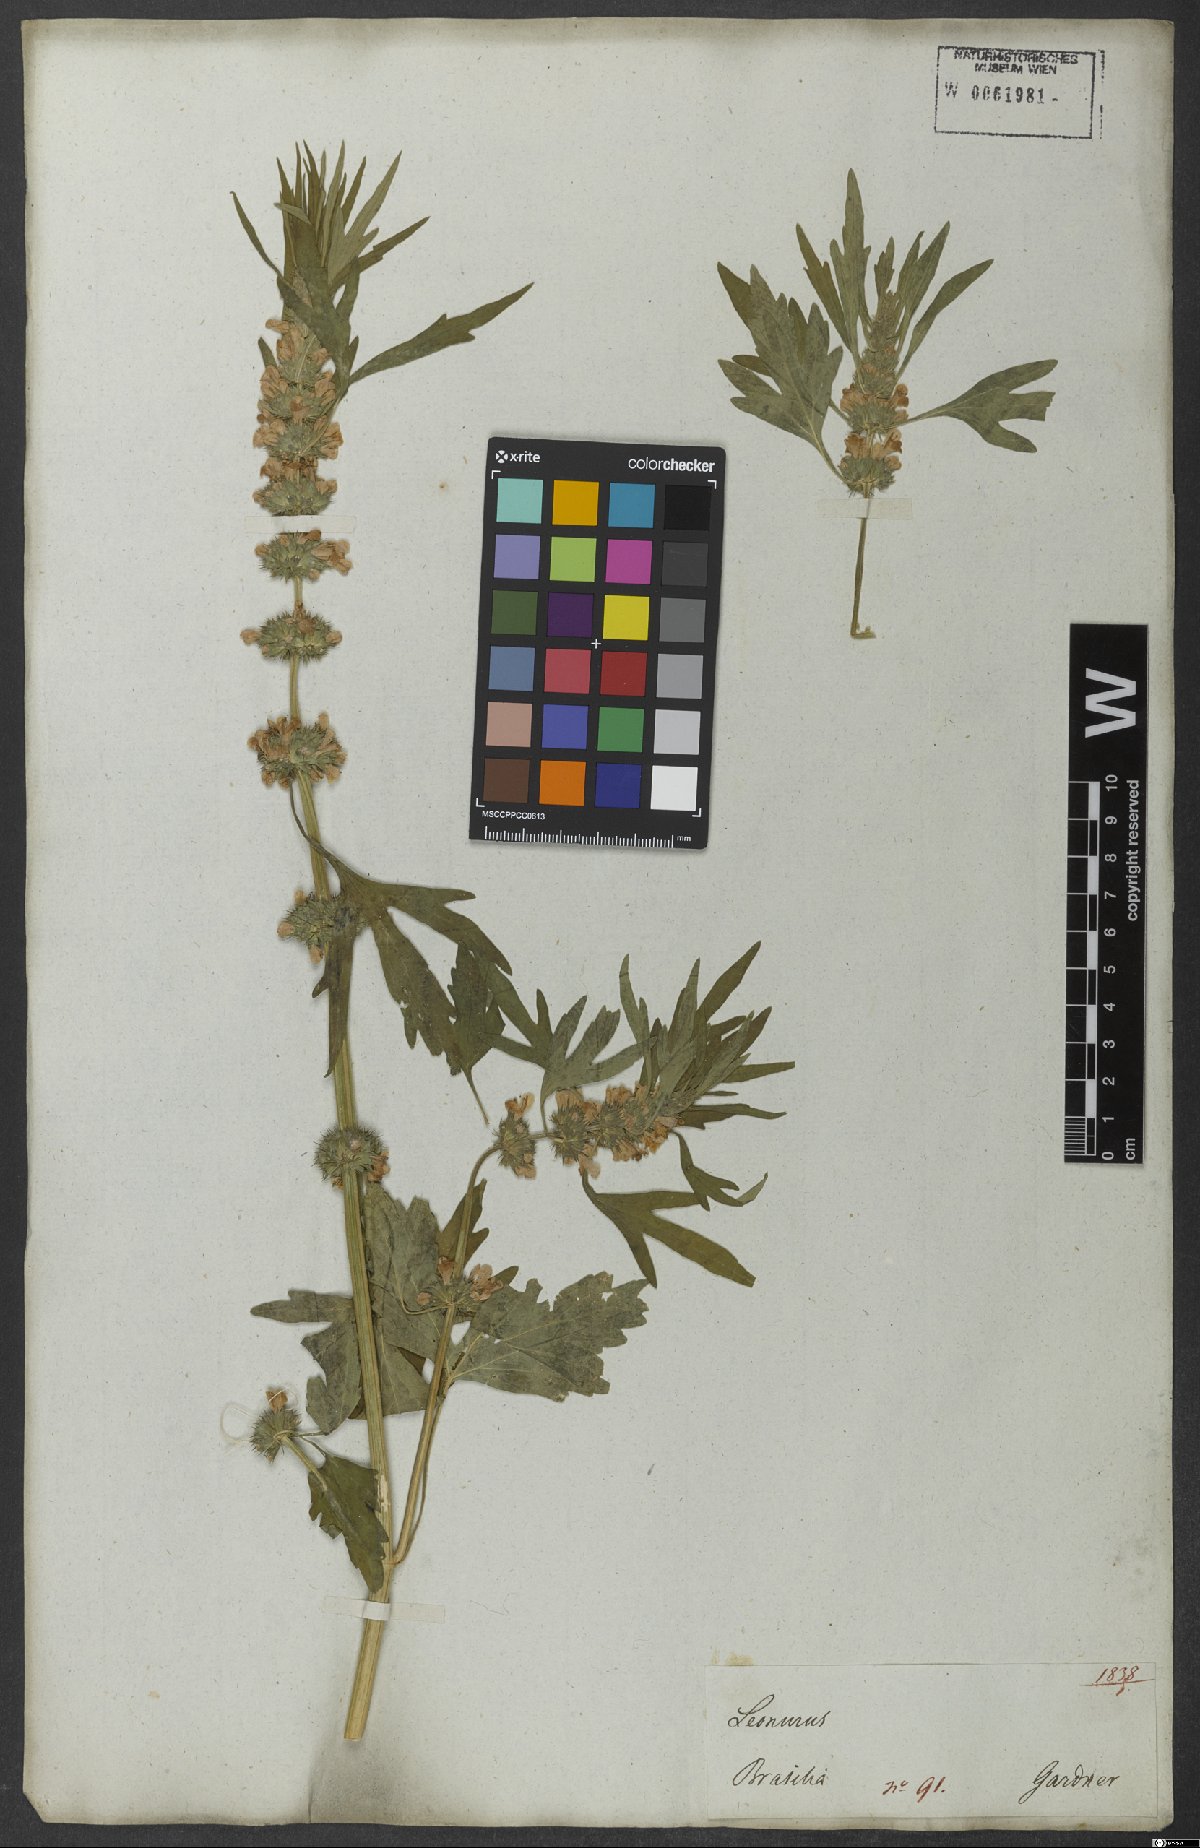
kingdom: Plantae
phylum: Tracheophyta
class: Magnoliopsida
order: Lamiales
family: Lamiaceae
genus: Leonurus
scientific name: Leonurus sibiricus
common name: Honeyweed
